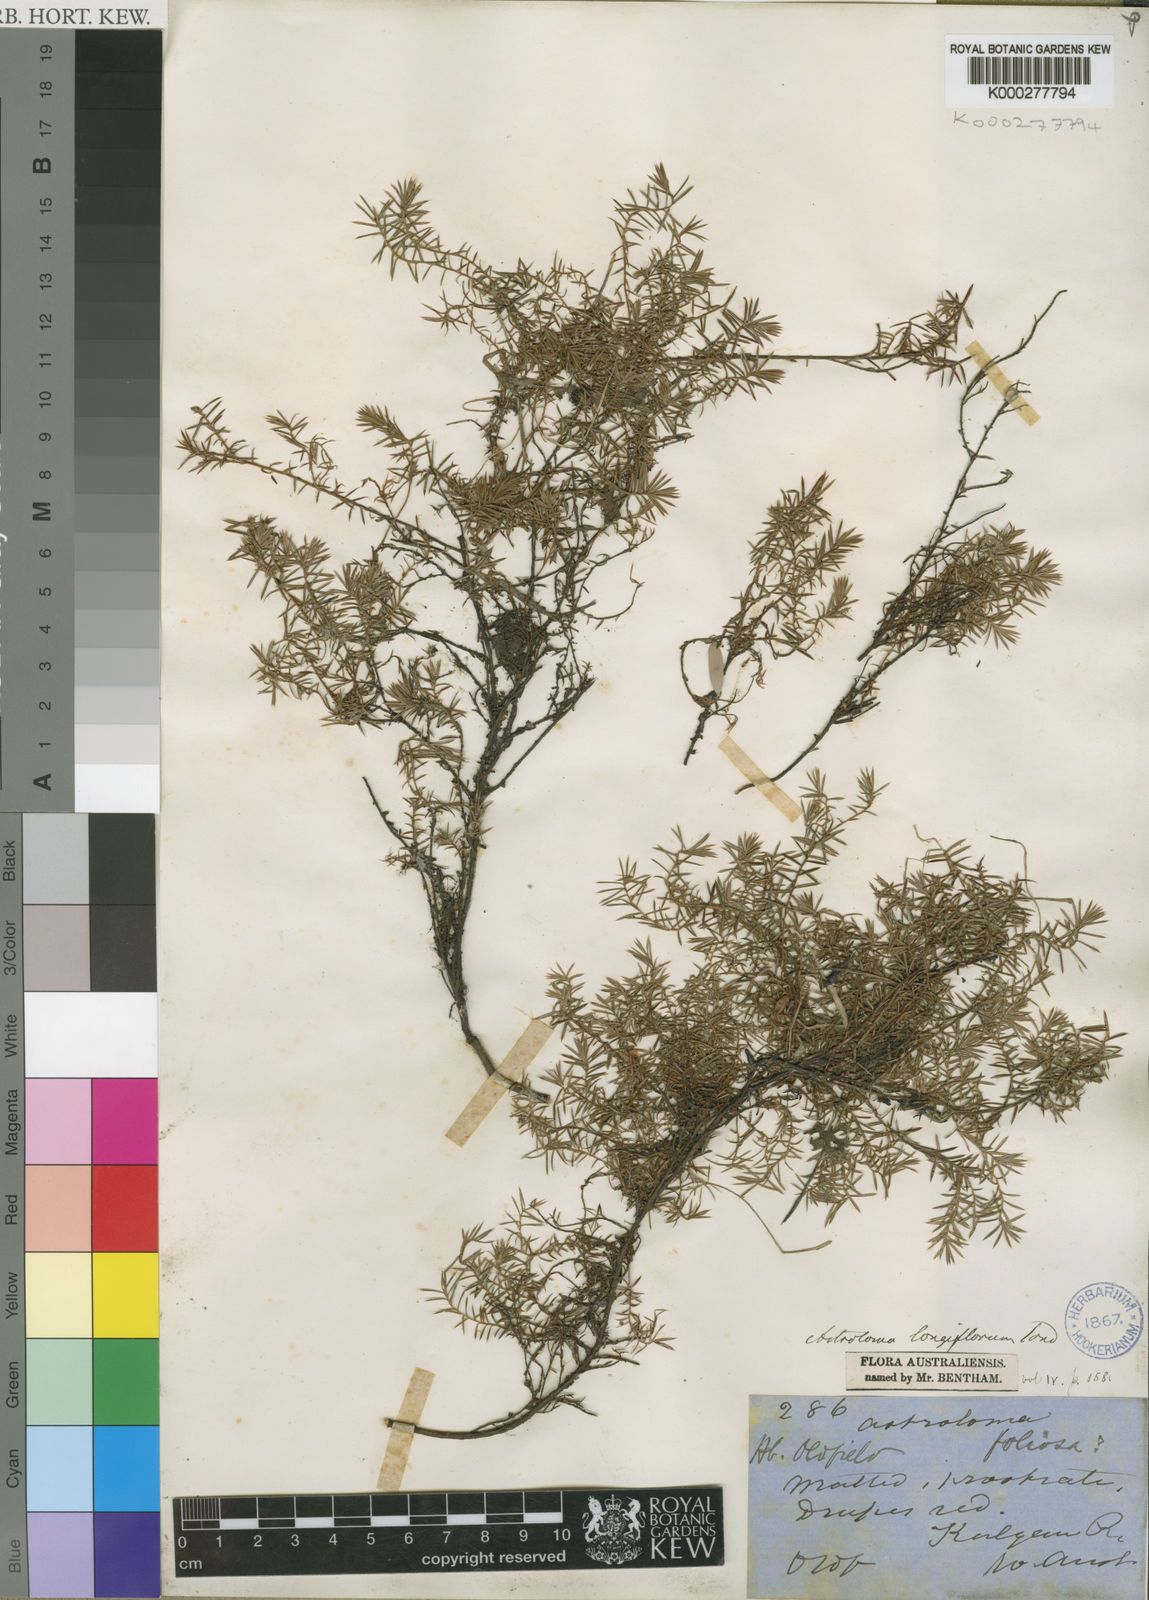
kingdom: Plantae
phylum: Tracheophyta
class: Magnoliopsida
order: Ericales
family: Ericaceae
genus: Styphelia
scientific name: Styphelia discolor
